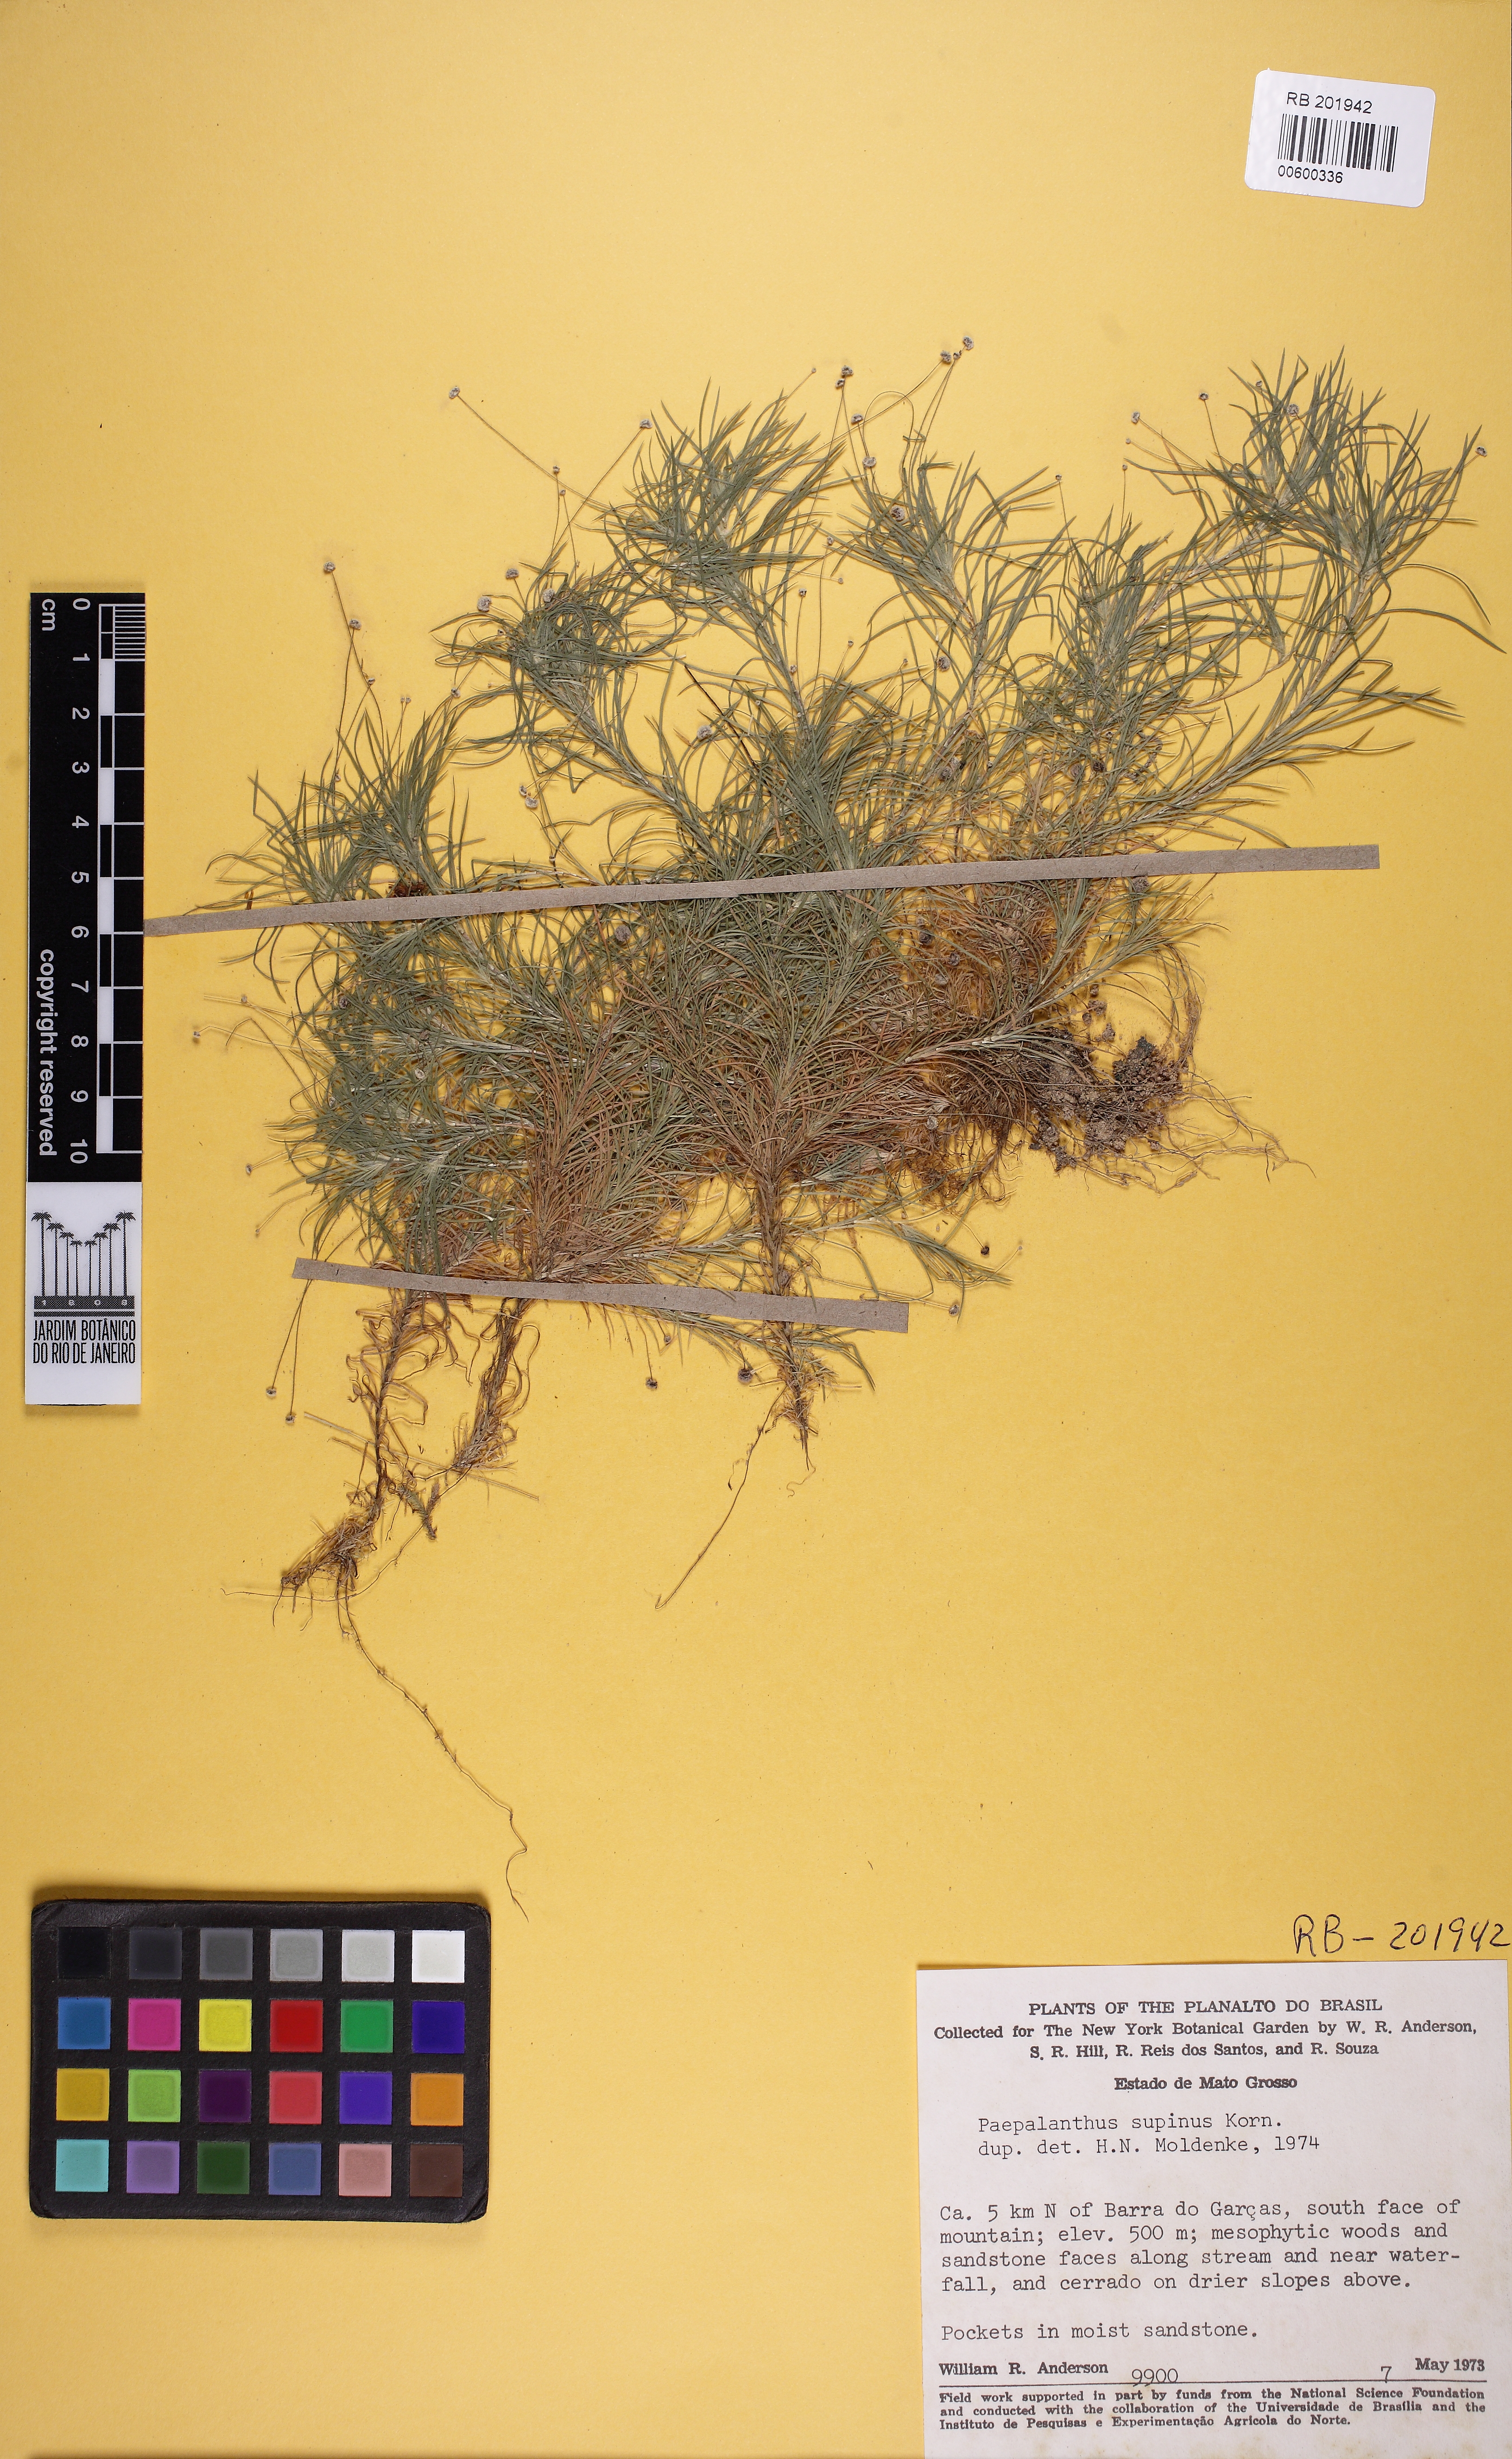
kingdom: Plantae
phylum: Tracheophyta
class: Liliopsida
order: Poales
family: Eriocaulaceae
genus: Paepalanthus
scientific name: Paepalanthus supinus
